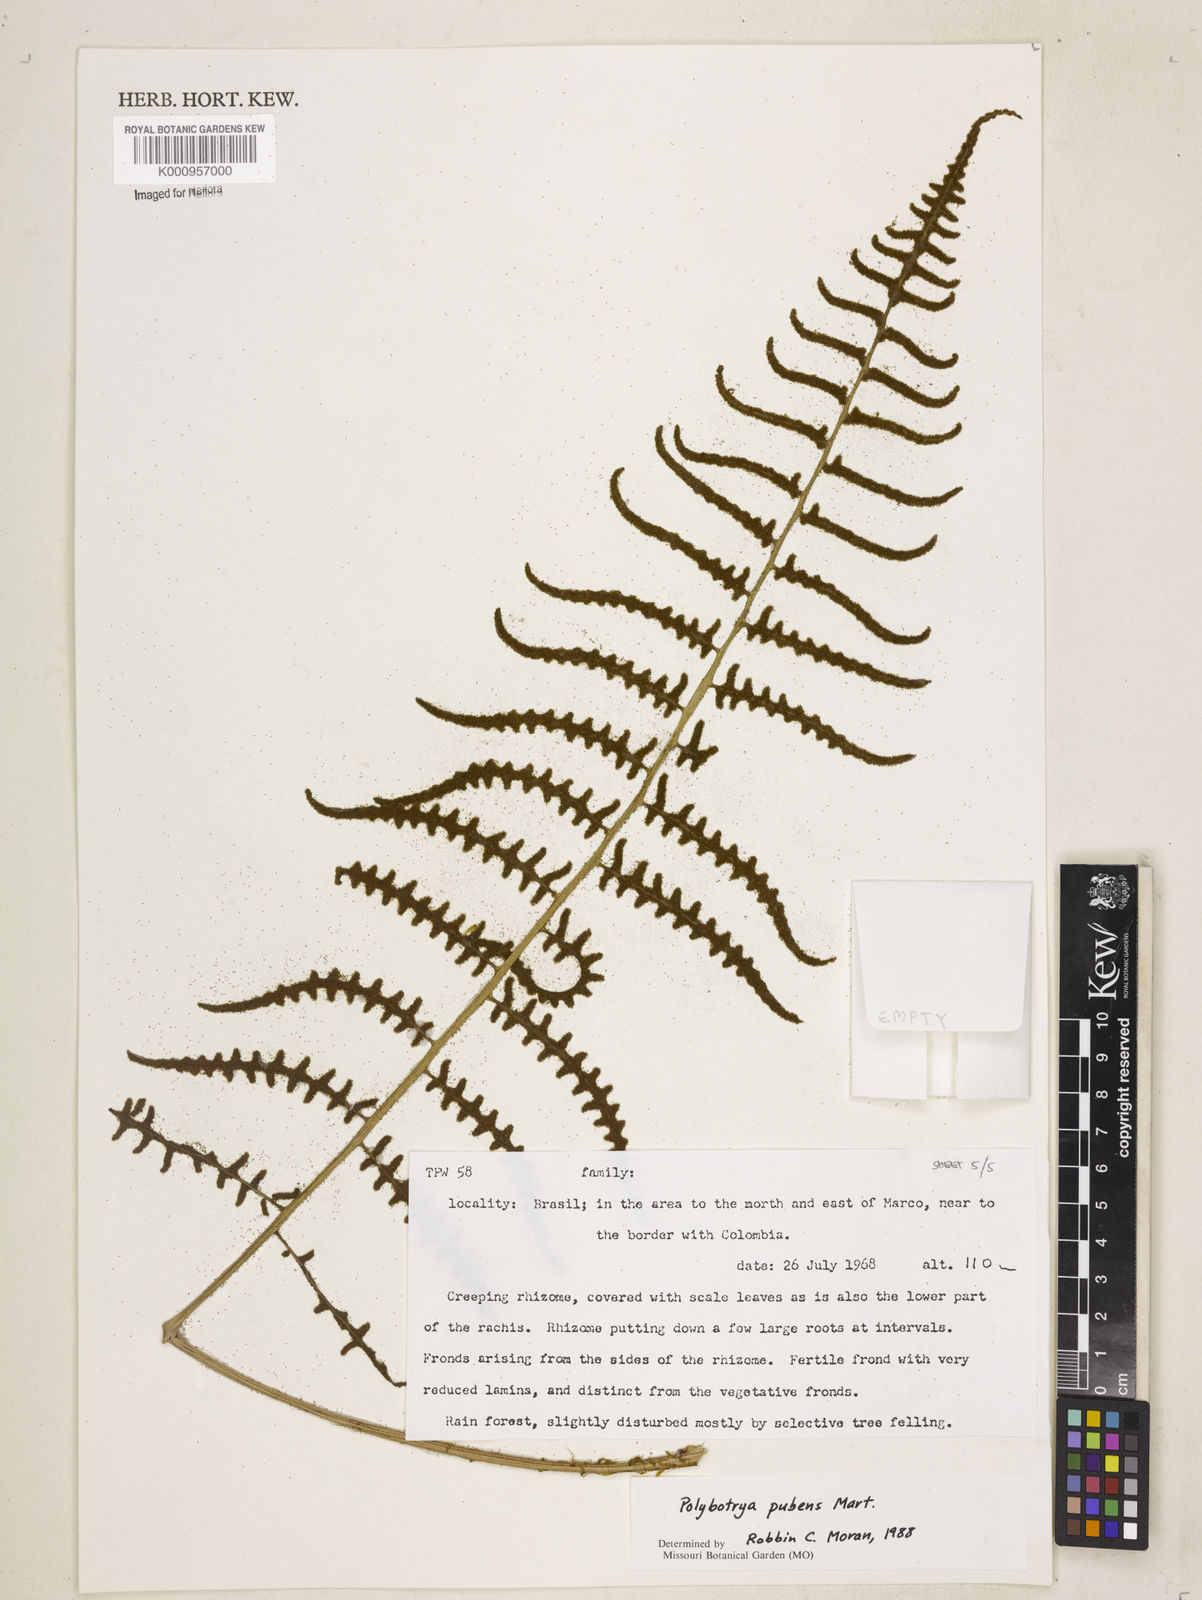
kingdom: Plantae
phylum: Tracheophyta
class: Polypodiopsida
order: Polypodiales
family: Dryopteridaceae
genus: Polybotrya
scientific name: Polybotrya pubens
